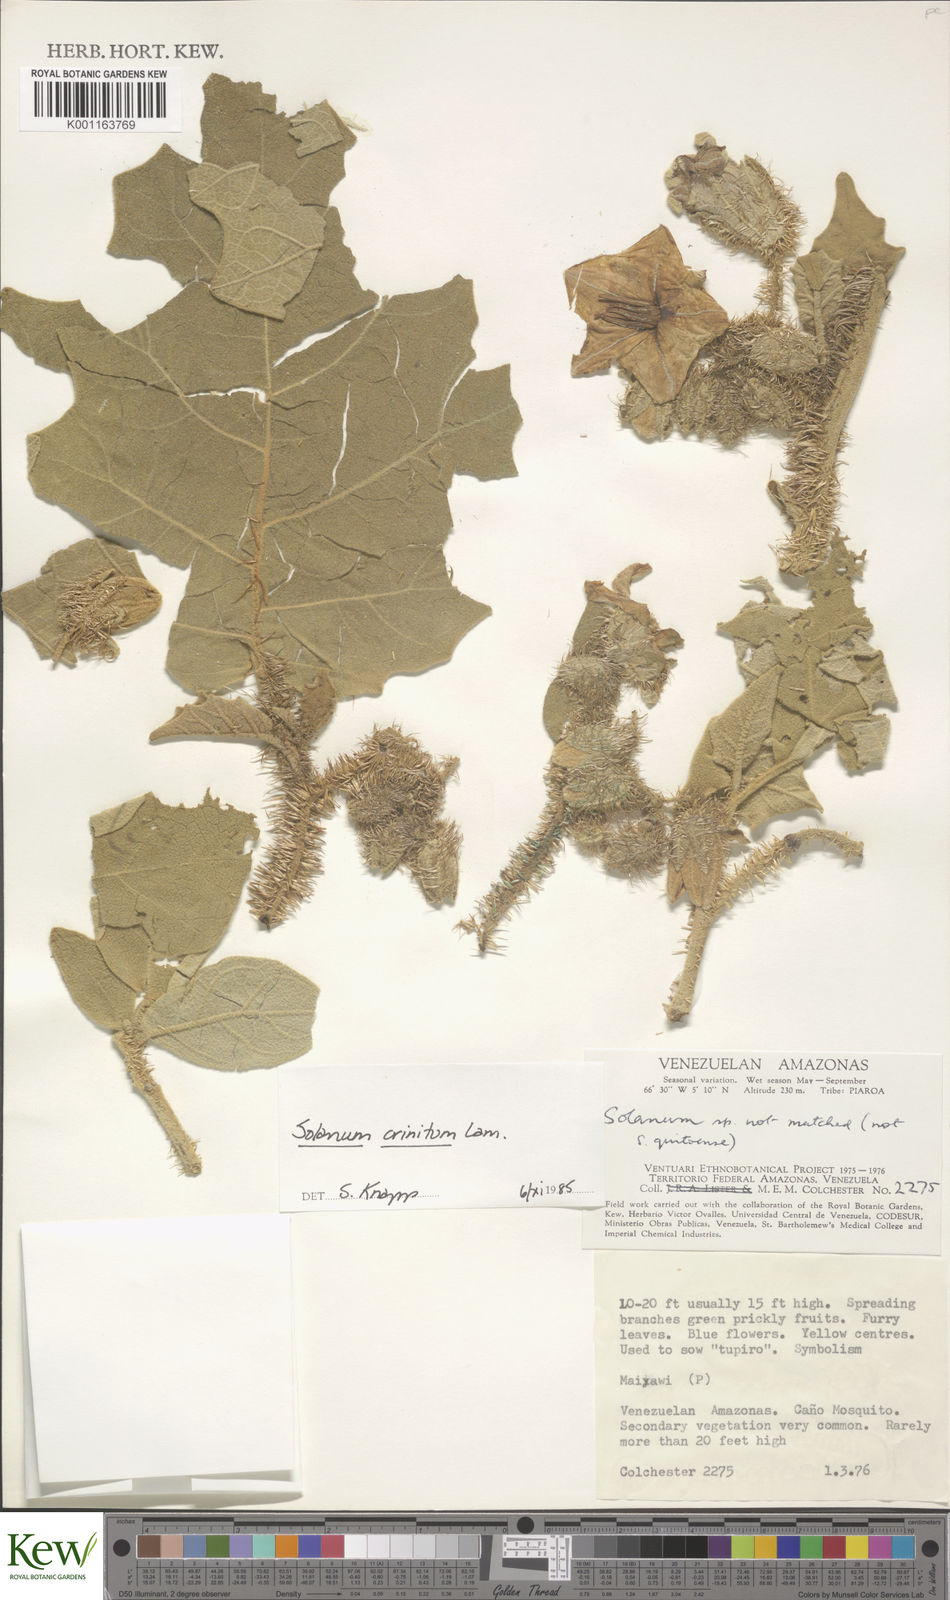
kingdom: Plantae
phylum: Tracheophyta
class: Magnoliopsida
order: Solanales
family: Solanaceae
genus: Solanum
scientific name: Solanum crinitum
